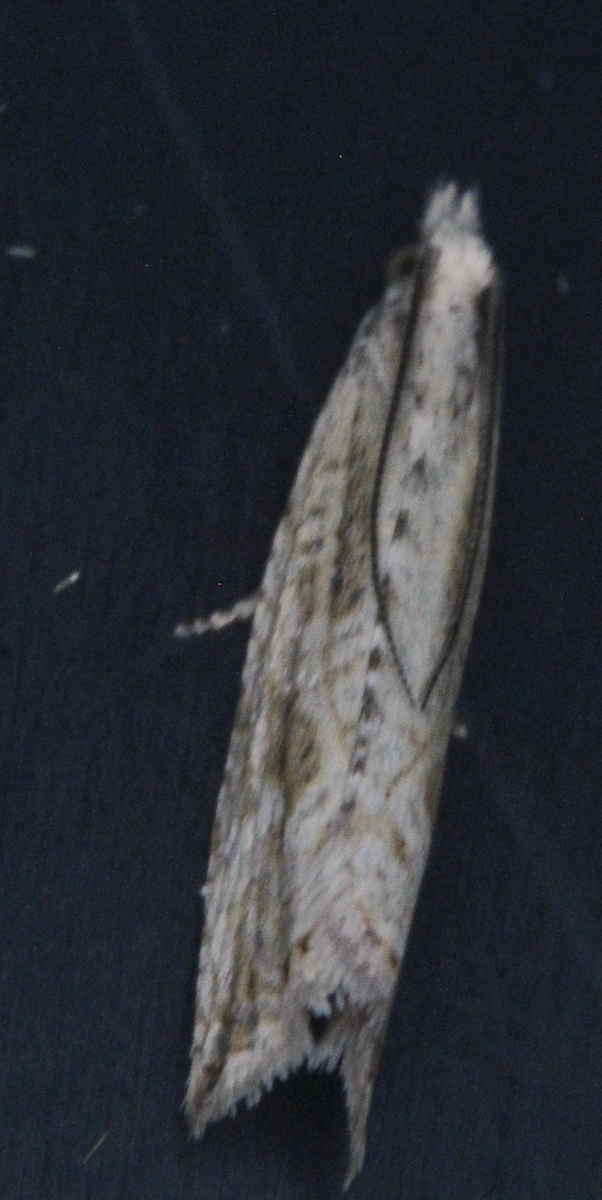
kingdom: Animalia
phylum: Arthropoda
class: Insecta
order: Lepidoptera
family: Tortricidae
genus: Bactra
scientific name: Bactra lancealana
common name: Rush marble
